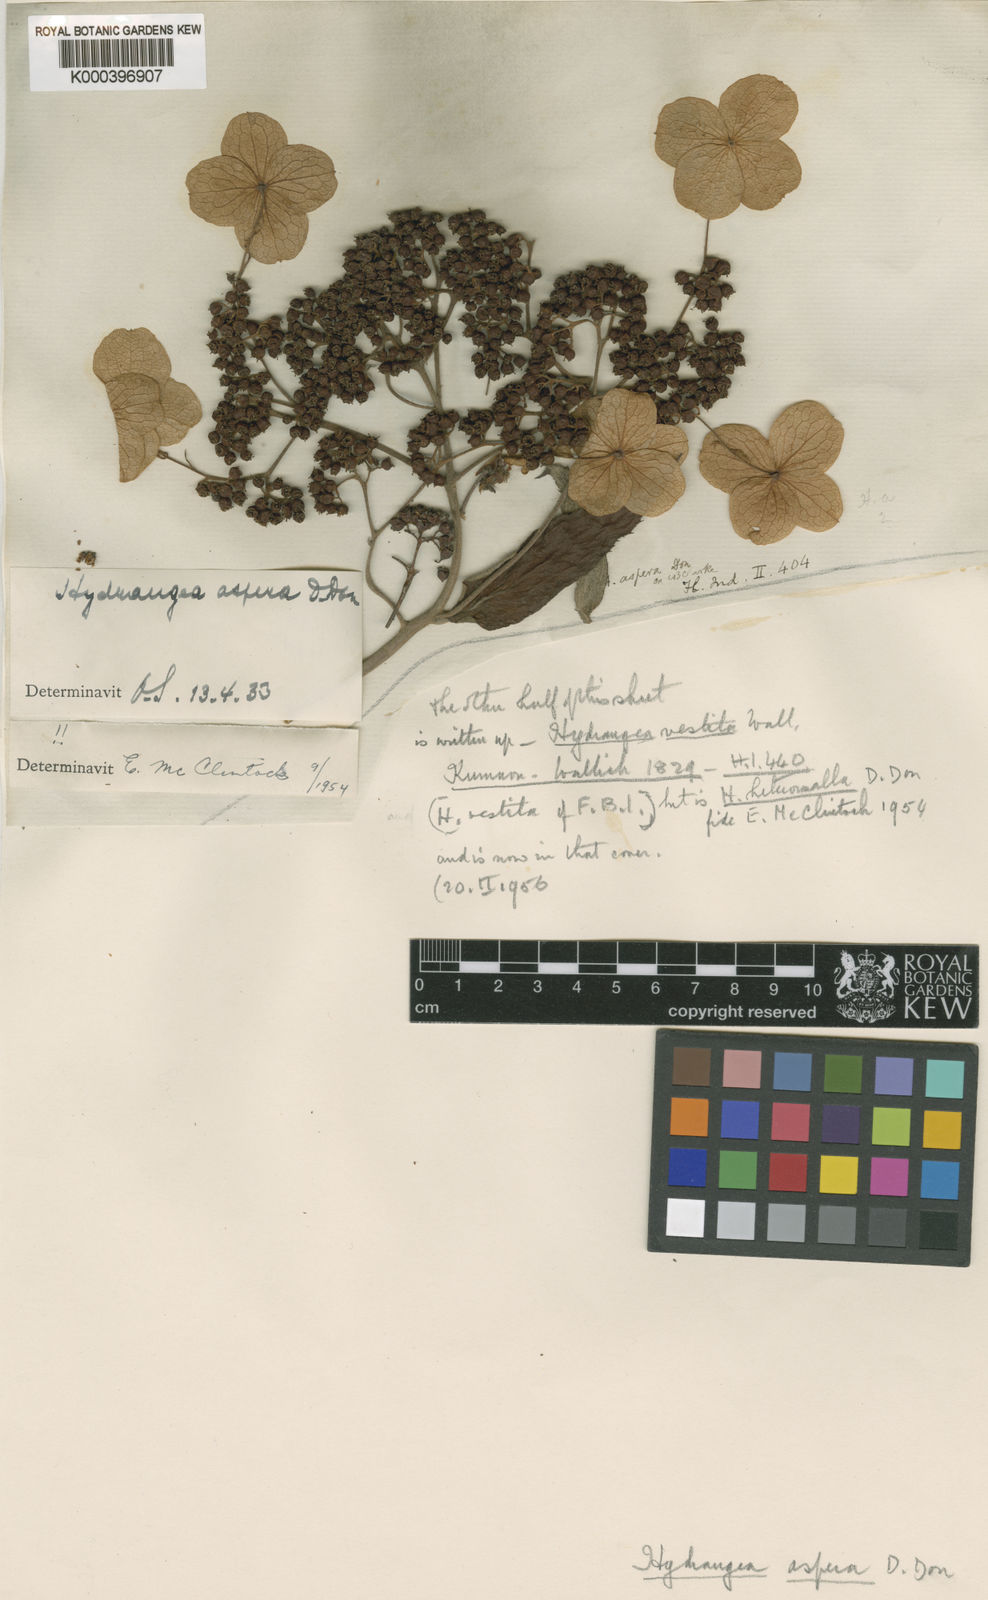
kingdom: Plantae
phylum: Tracheophyta
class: Magnoliopsida
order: Cornales
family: Hydrangeaceae
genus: Hydrangea
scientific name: Hydrangea aspera
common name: Rough-leaf hydrangea
